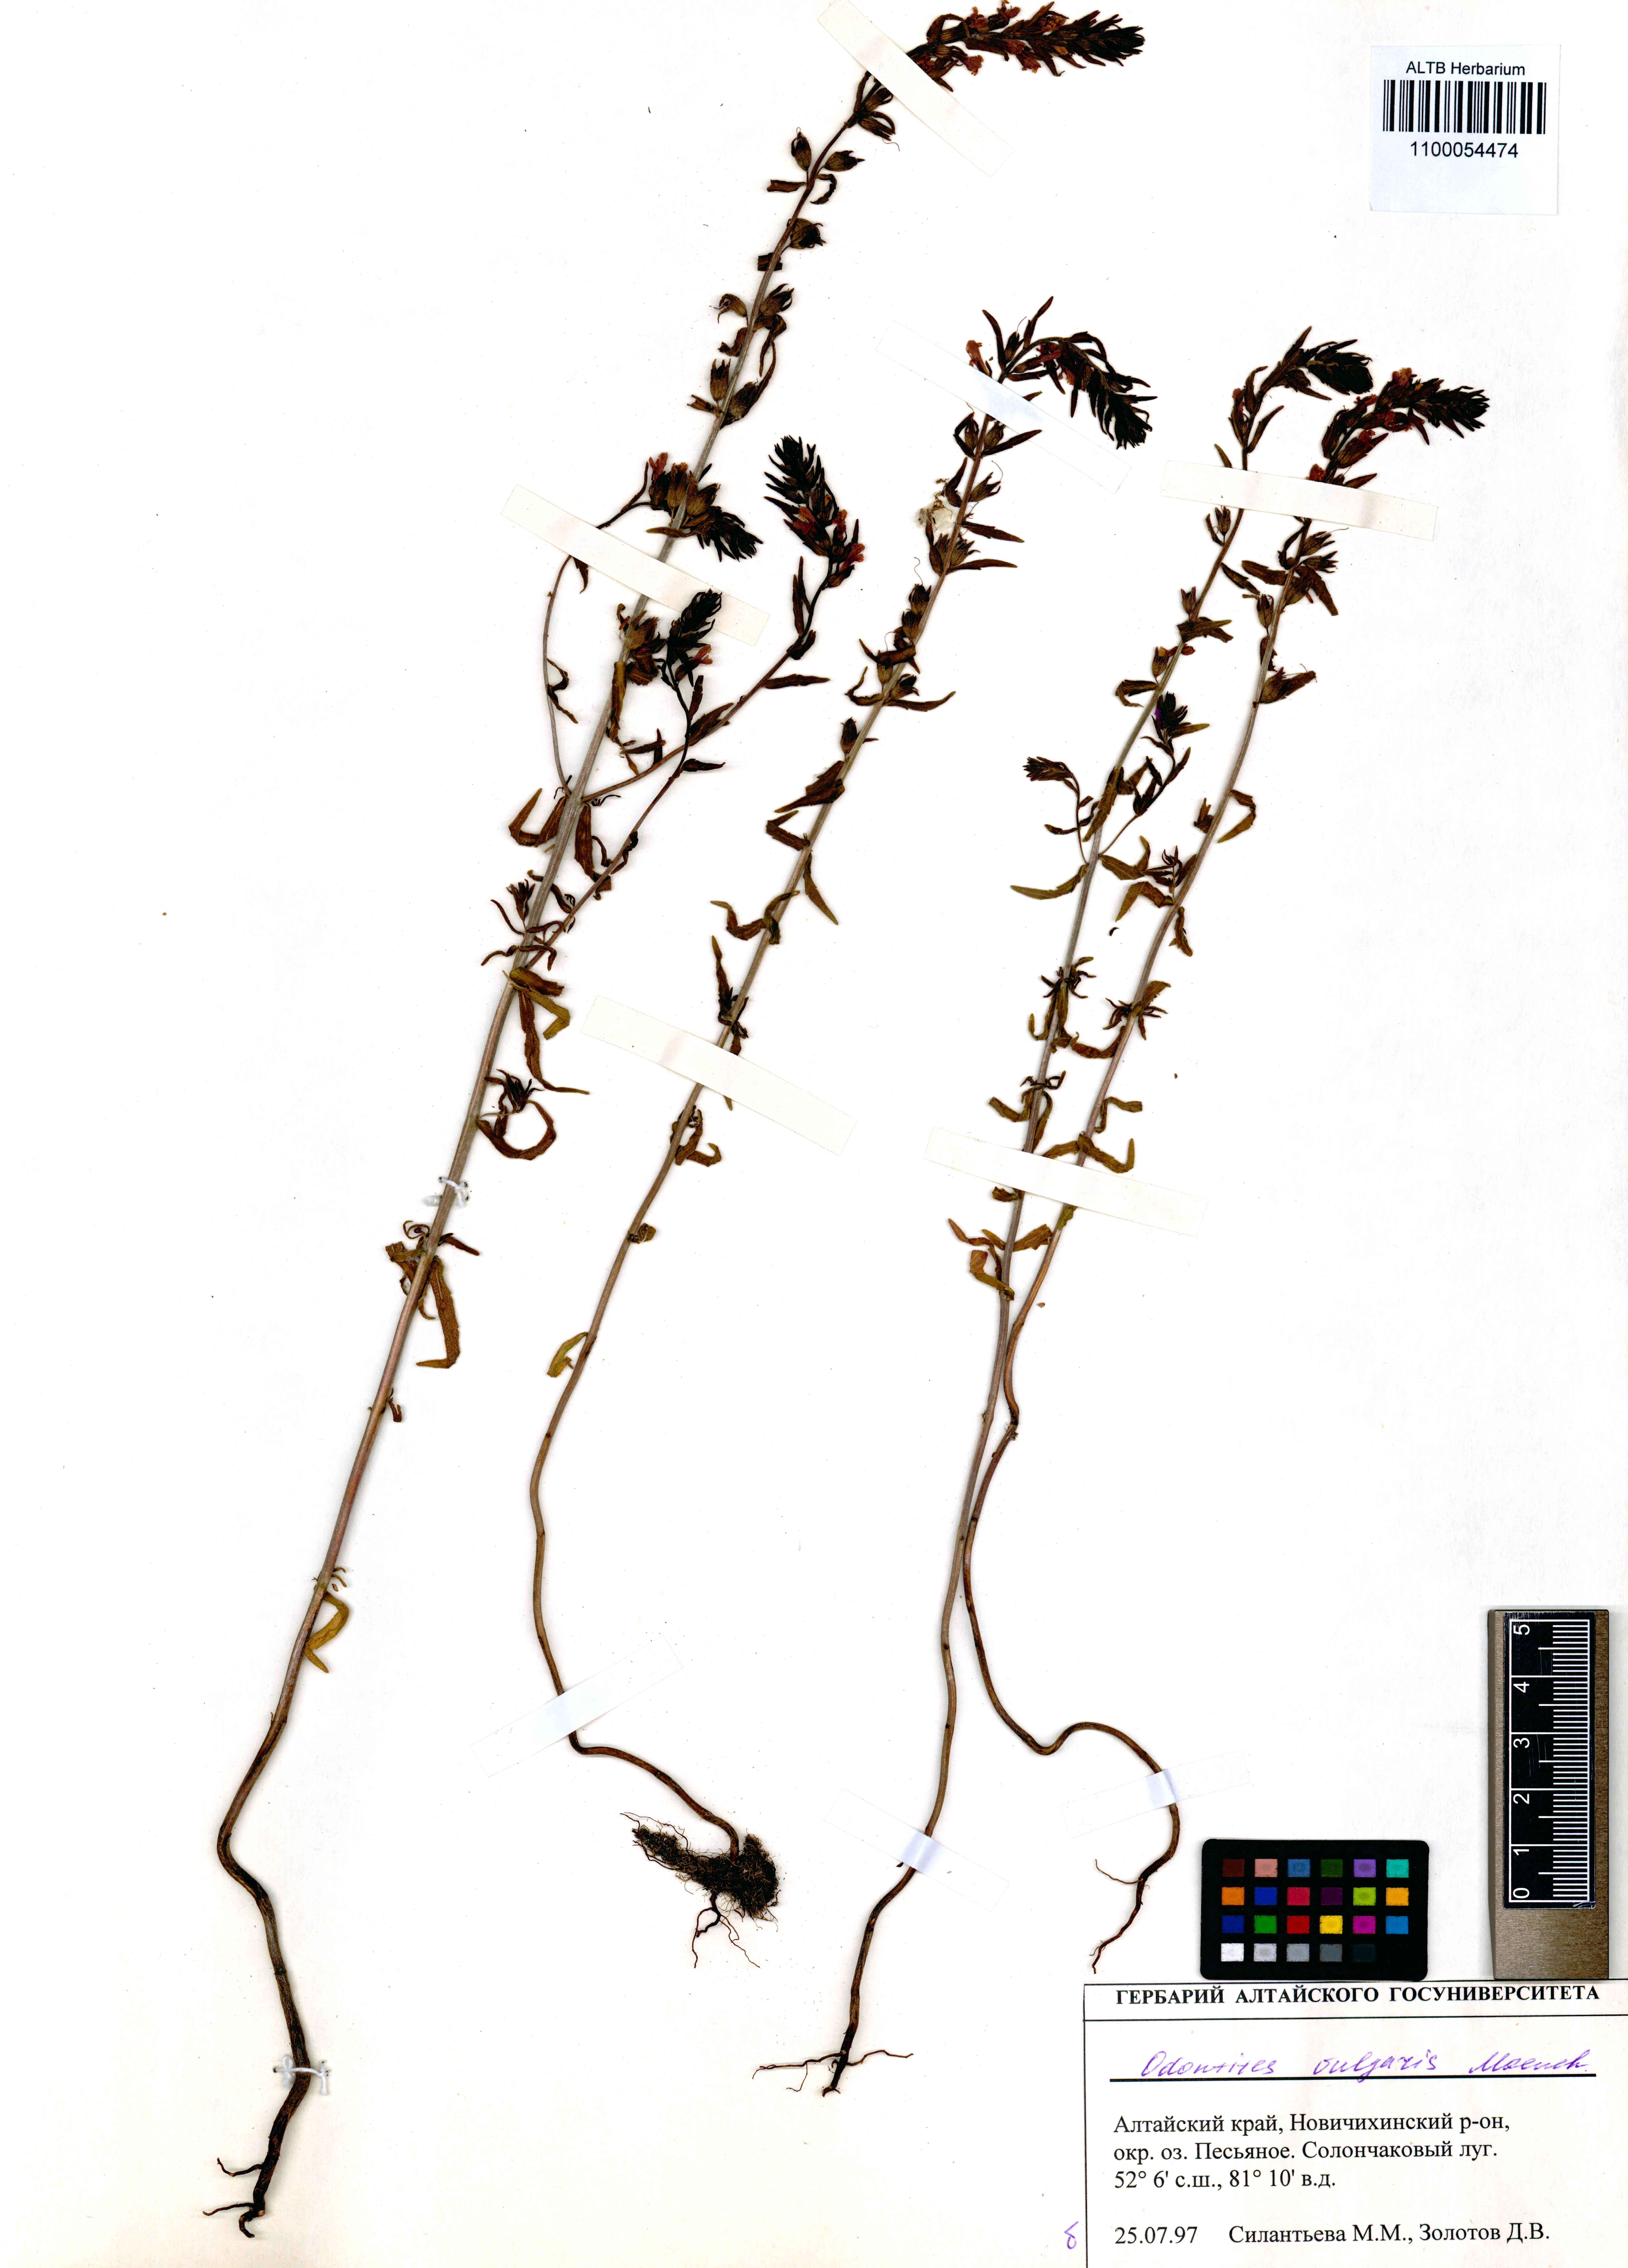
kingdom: Plantae
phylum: Tracheophyta
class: Magnoliopsida
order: Lamiales
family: Orobanchaceae
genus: Odontites
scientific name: Odontites vulgaris
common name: Broomrape
